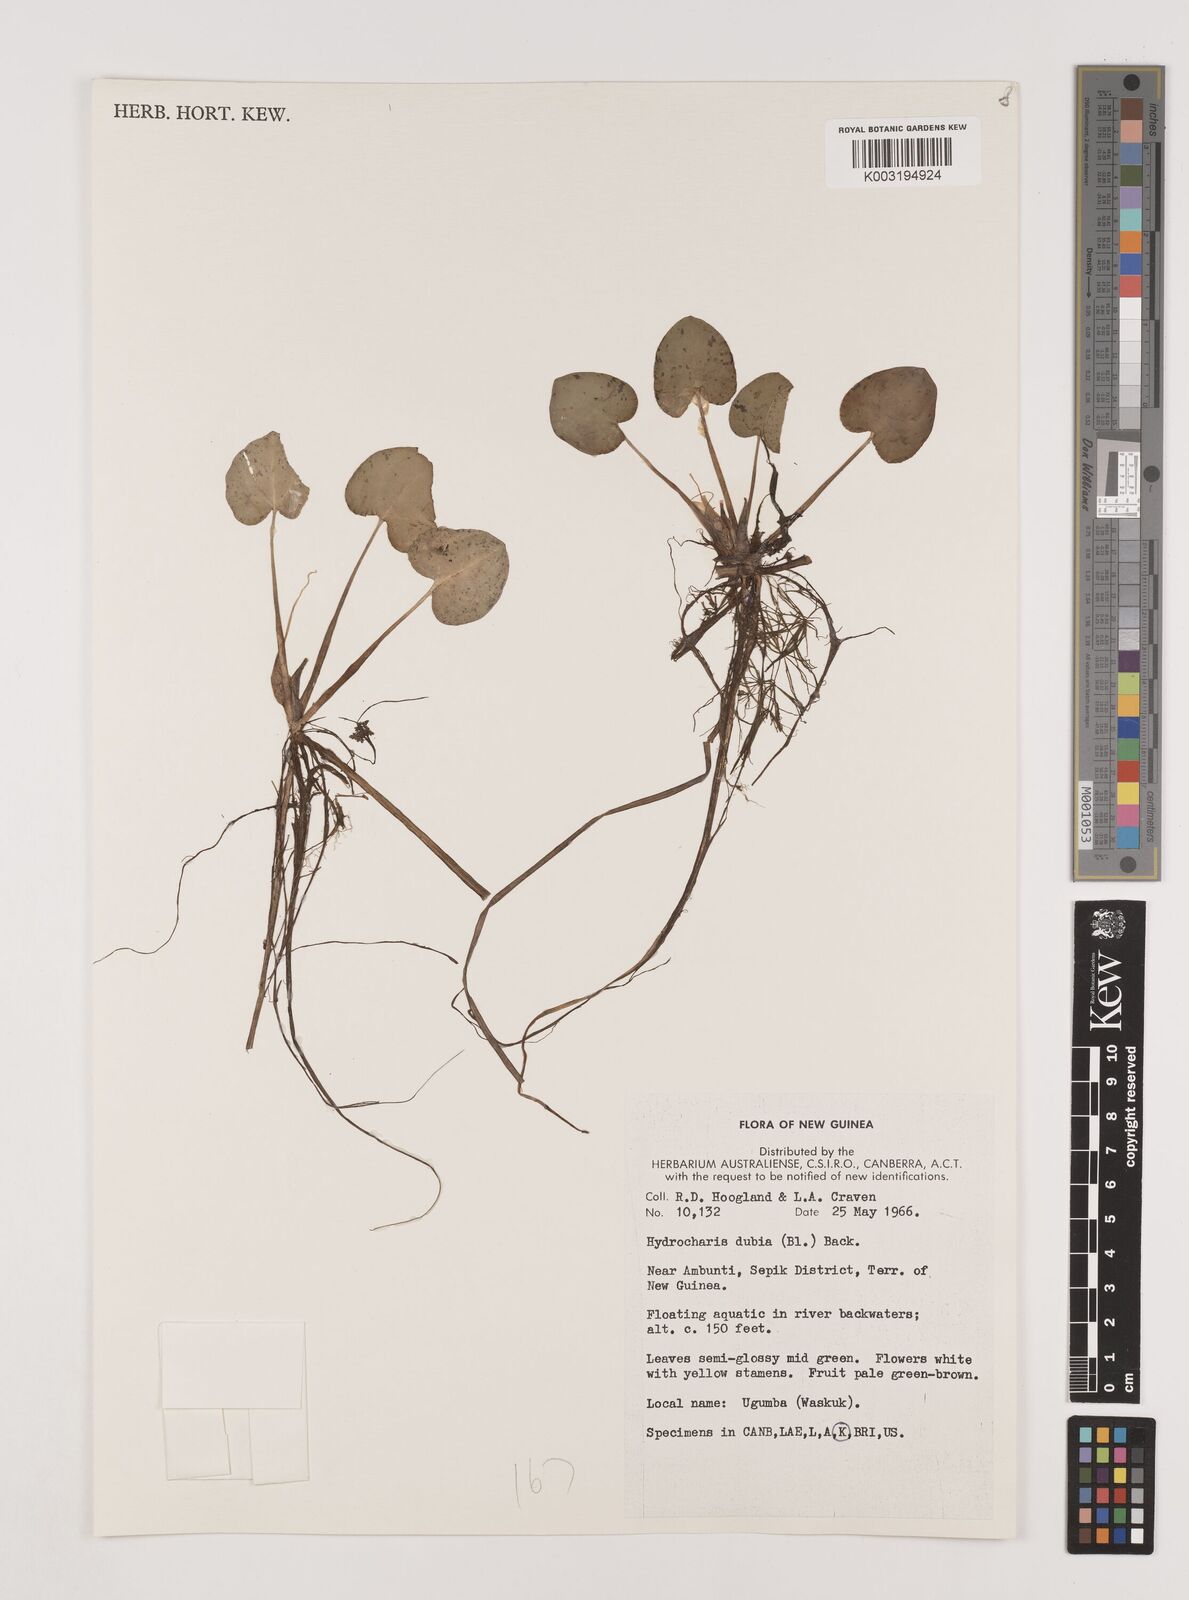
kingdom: Plantae
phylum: Tracheophyta
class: Liliopsida
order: Alismatales
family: Hydrocharitaceae
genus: Hydrocharis
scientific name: Hydrocharis dubia
